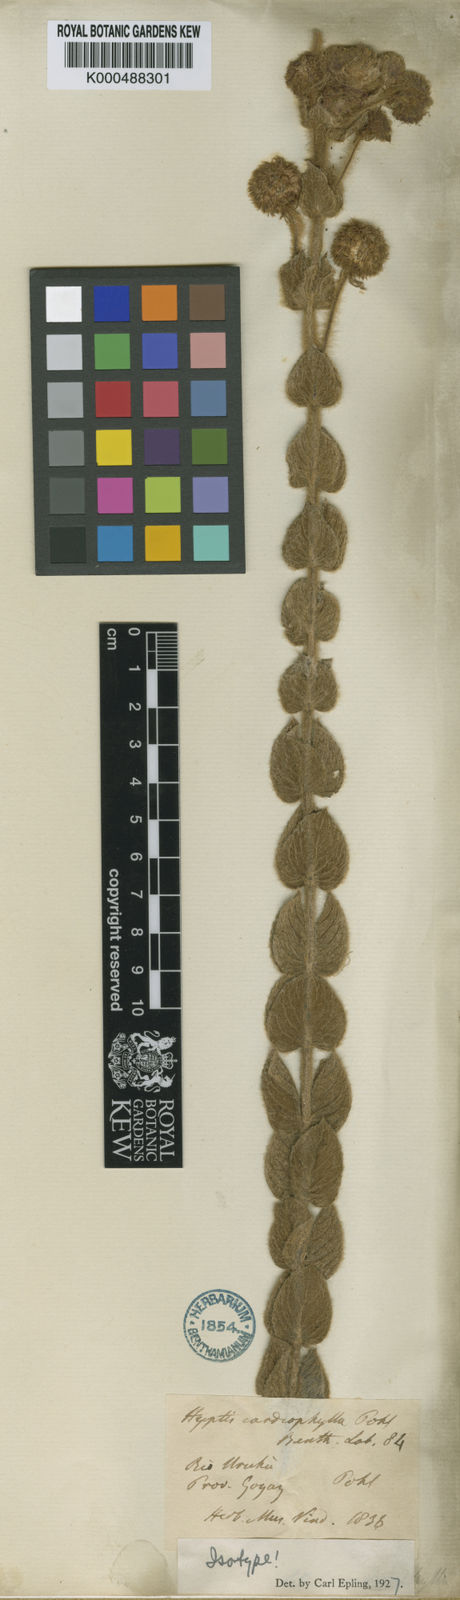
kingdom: Plantae
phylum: Tracheophyta
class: Magnoliopsida
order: Lamiales
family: Lamiaceae
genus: Cyanocephalus
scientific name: Cyanocephalus cardiophyllus
